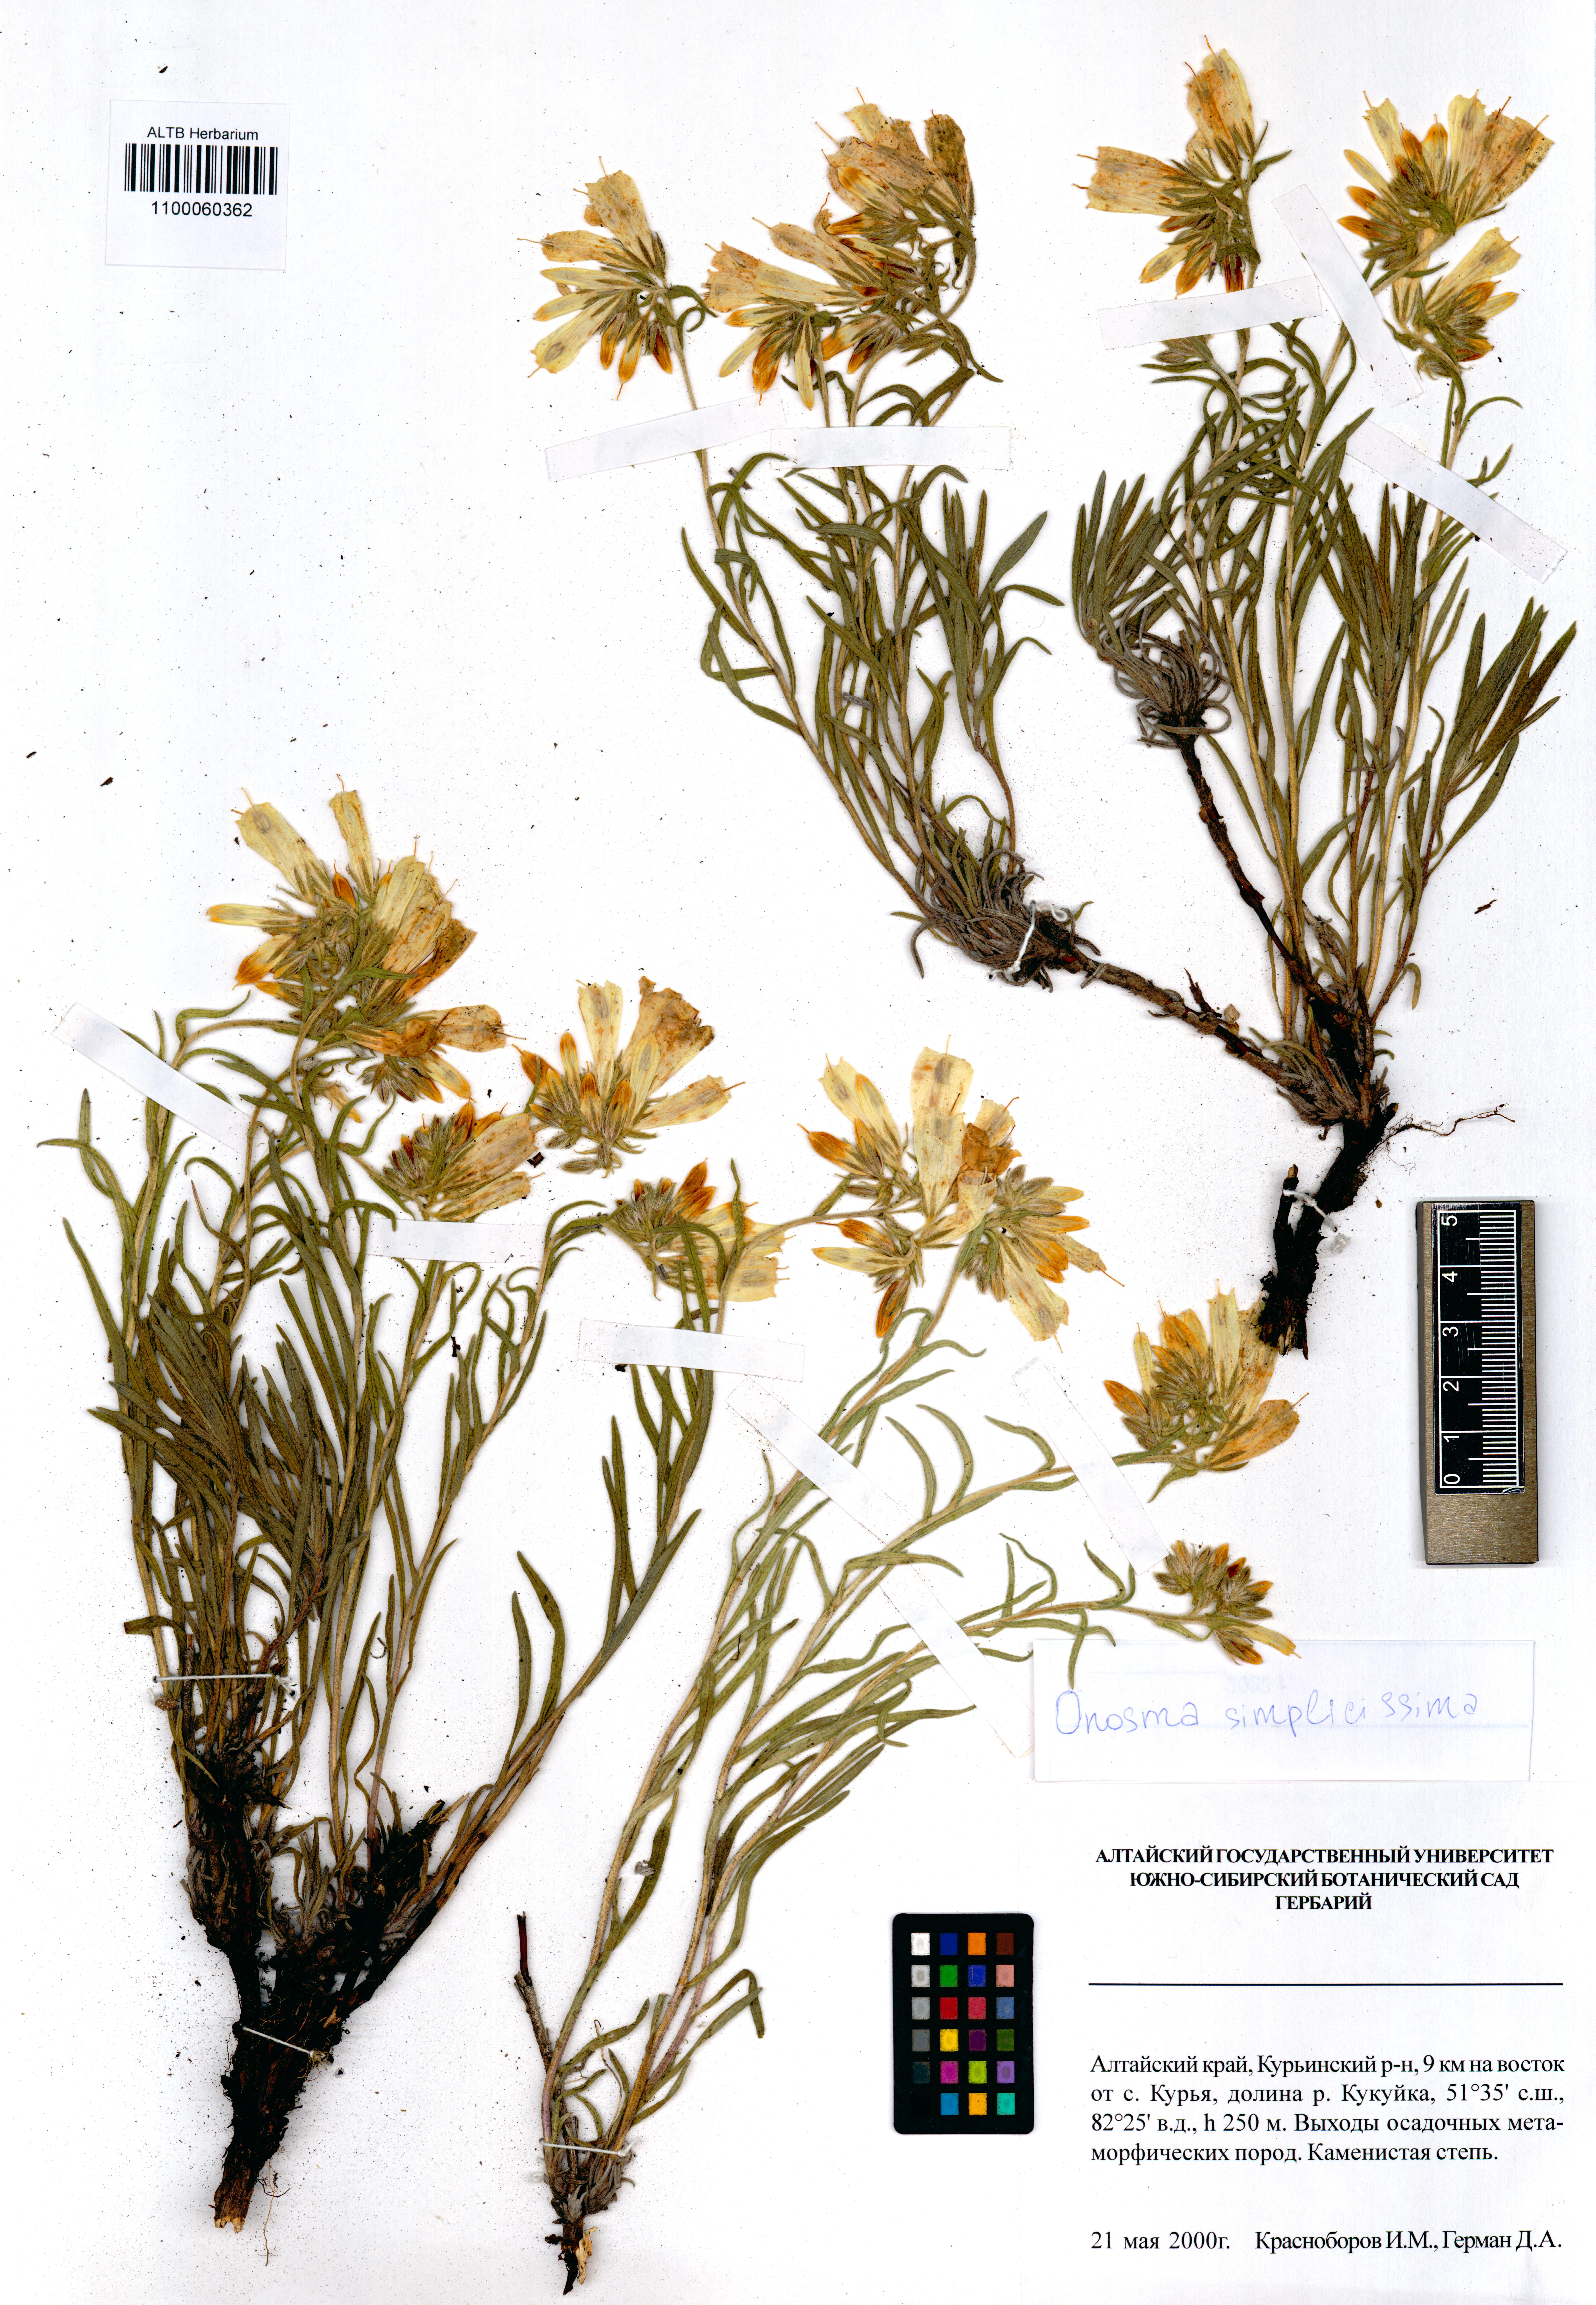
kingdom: Plantae
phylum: Tracheophyta
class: Magnoliopsida
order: Boraginales
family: Boraginaceae
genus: Onosma
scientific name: Onosma simplicissima
